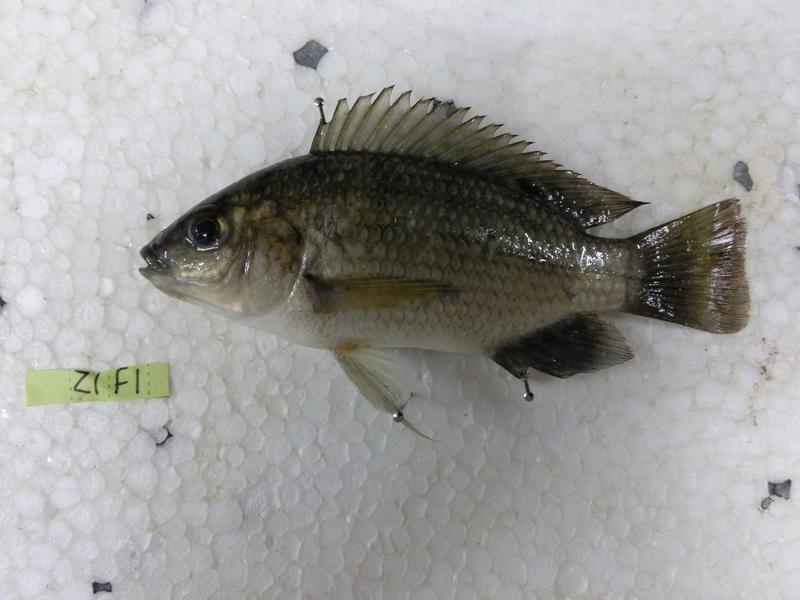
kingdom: Animalia
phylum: Chordata
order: Perciformes
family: Cichlidae
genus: Oreochromis
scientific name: Oreochromis urolepis
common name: Wami tilapia
